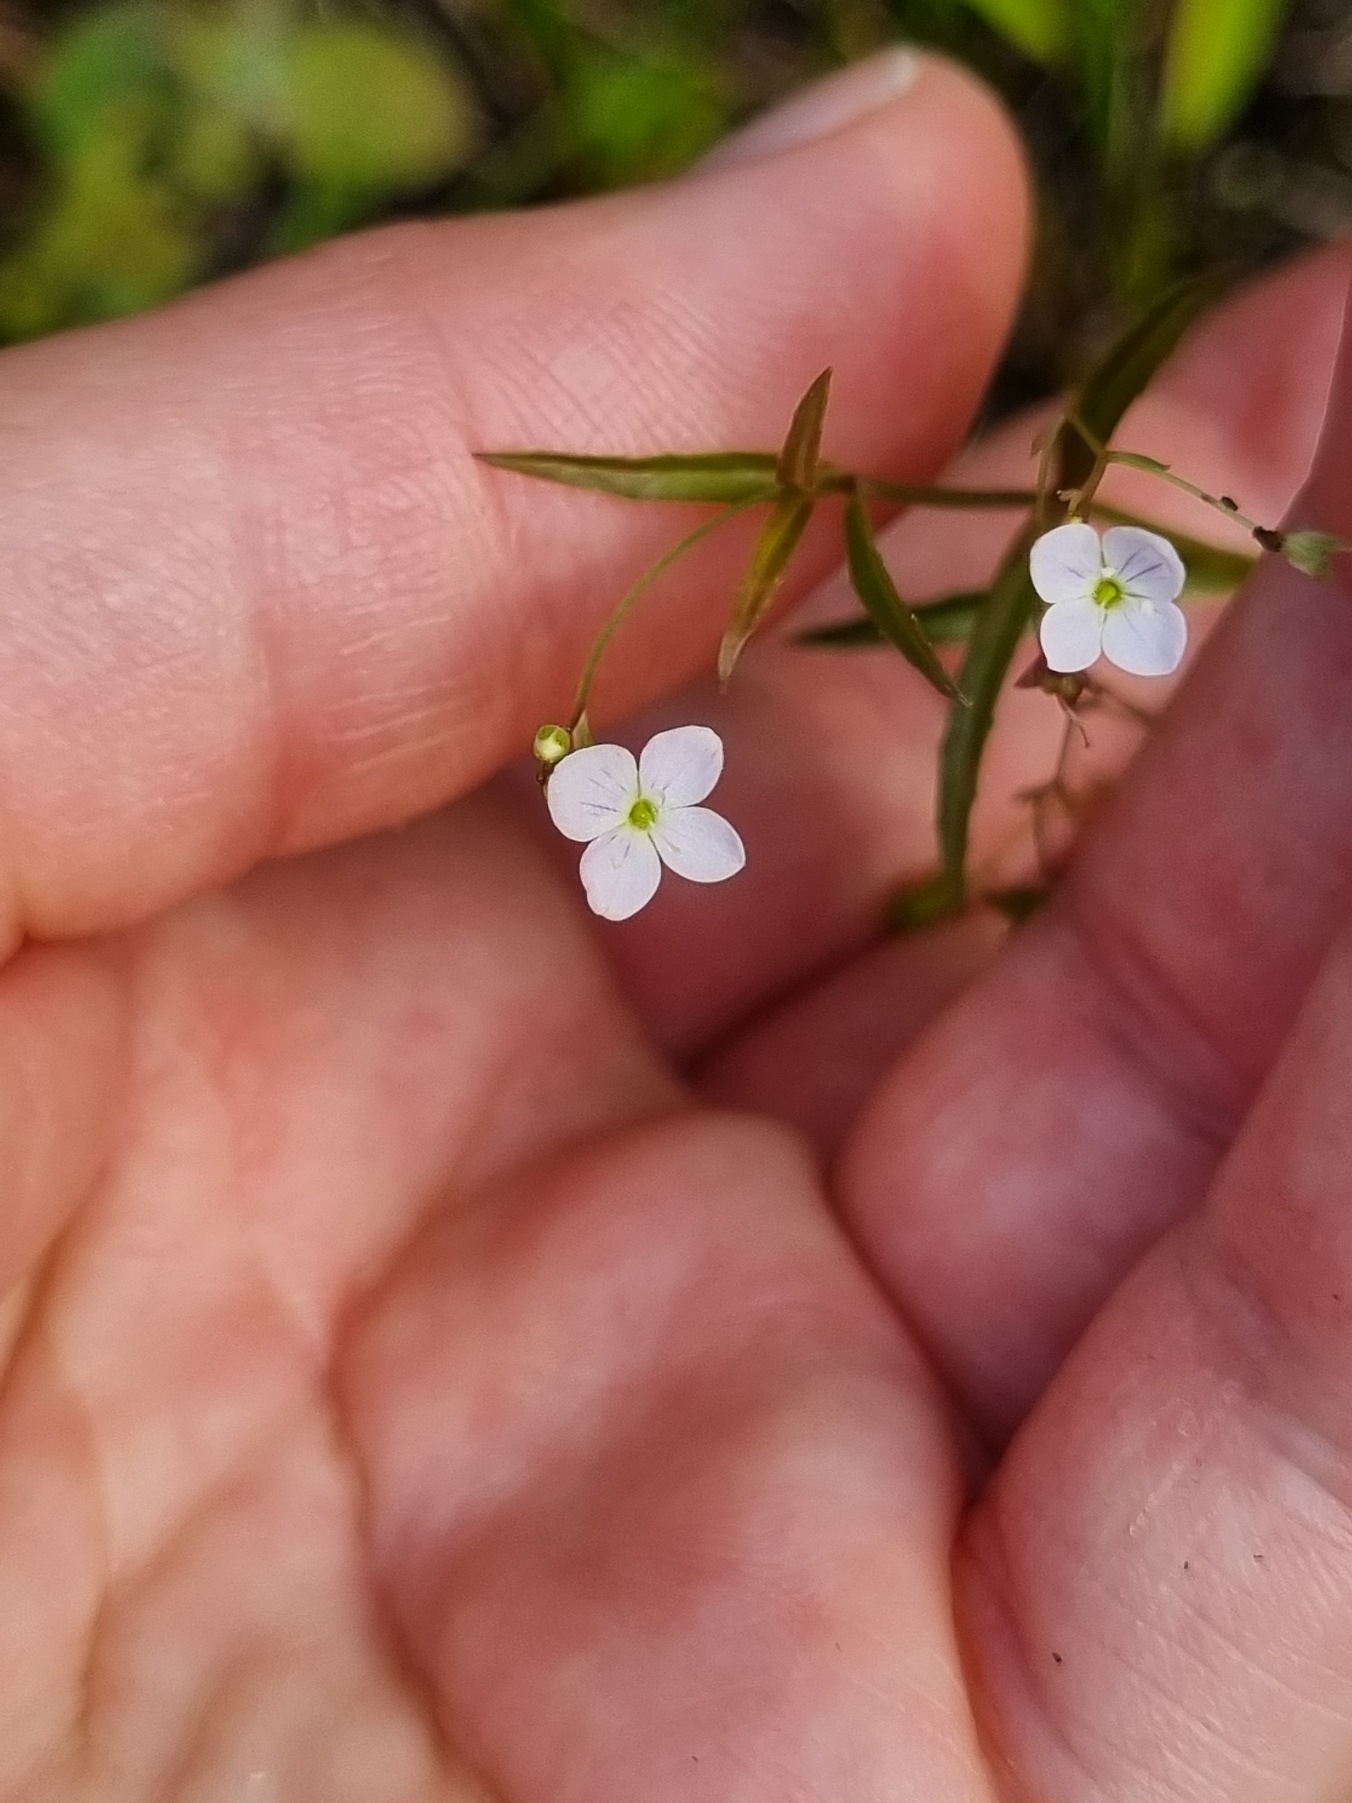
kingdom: Plantae
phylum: Tracheophyta
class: Magnoliopsida
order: Lamiales
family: Plantaginaceae
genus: Veronica
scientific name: Veronica scutellata
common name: Smalbladet ærenpris
